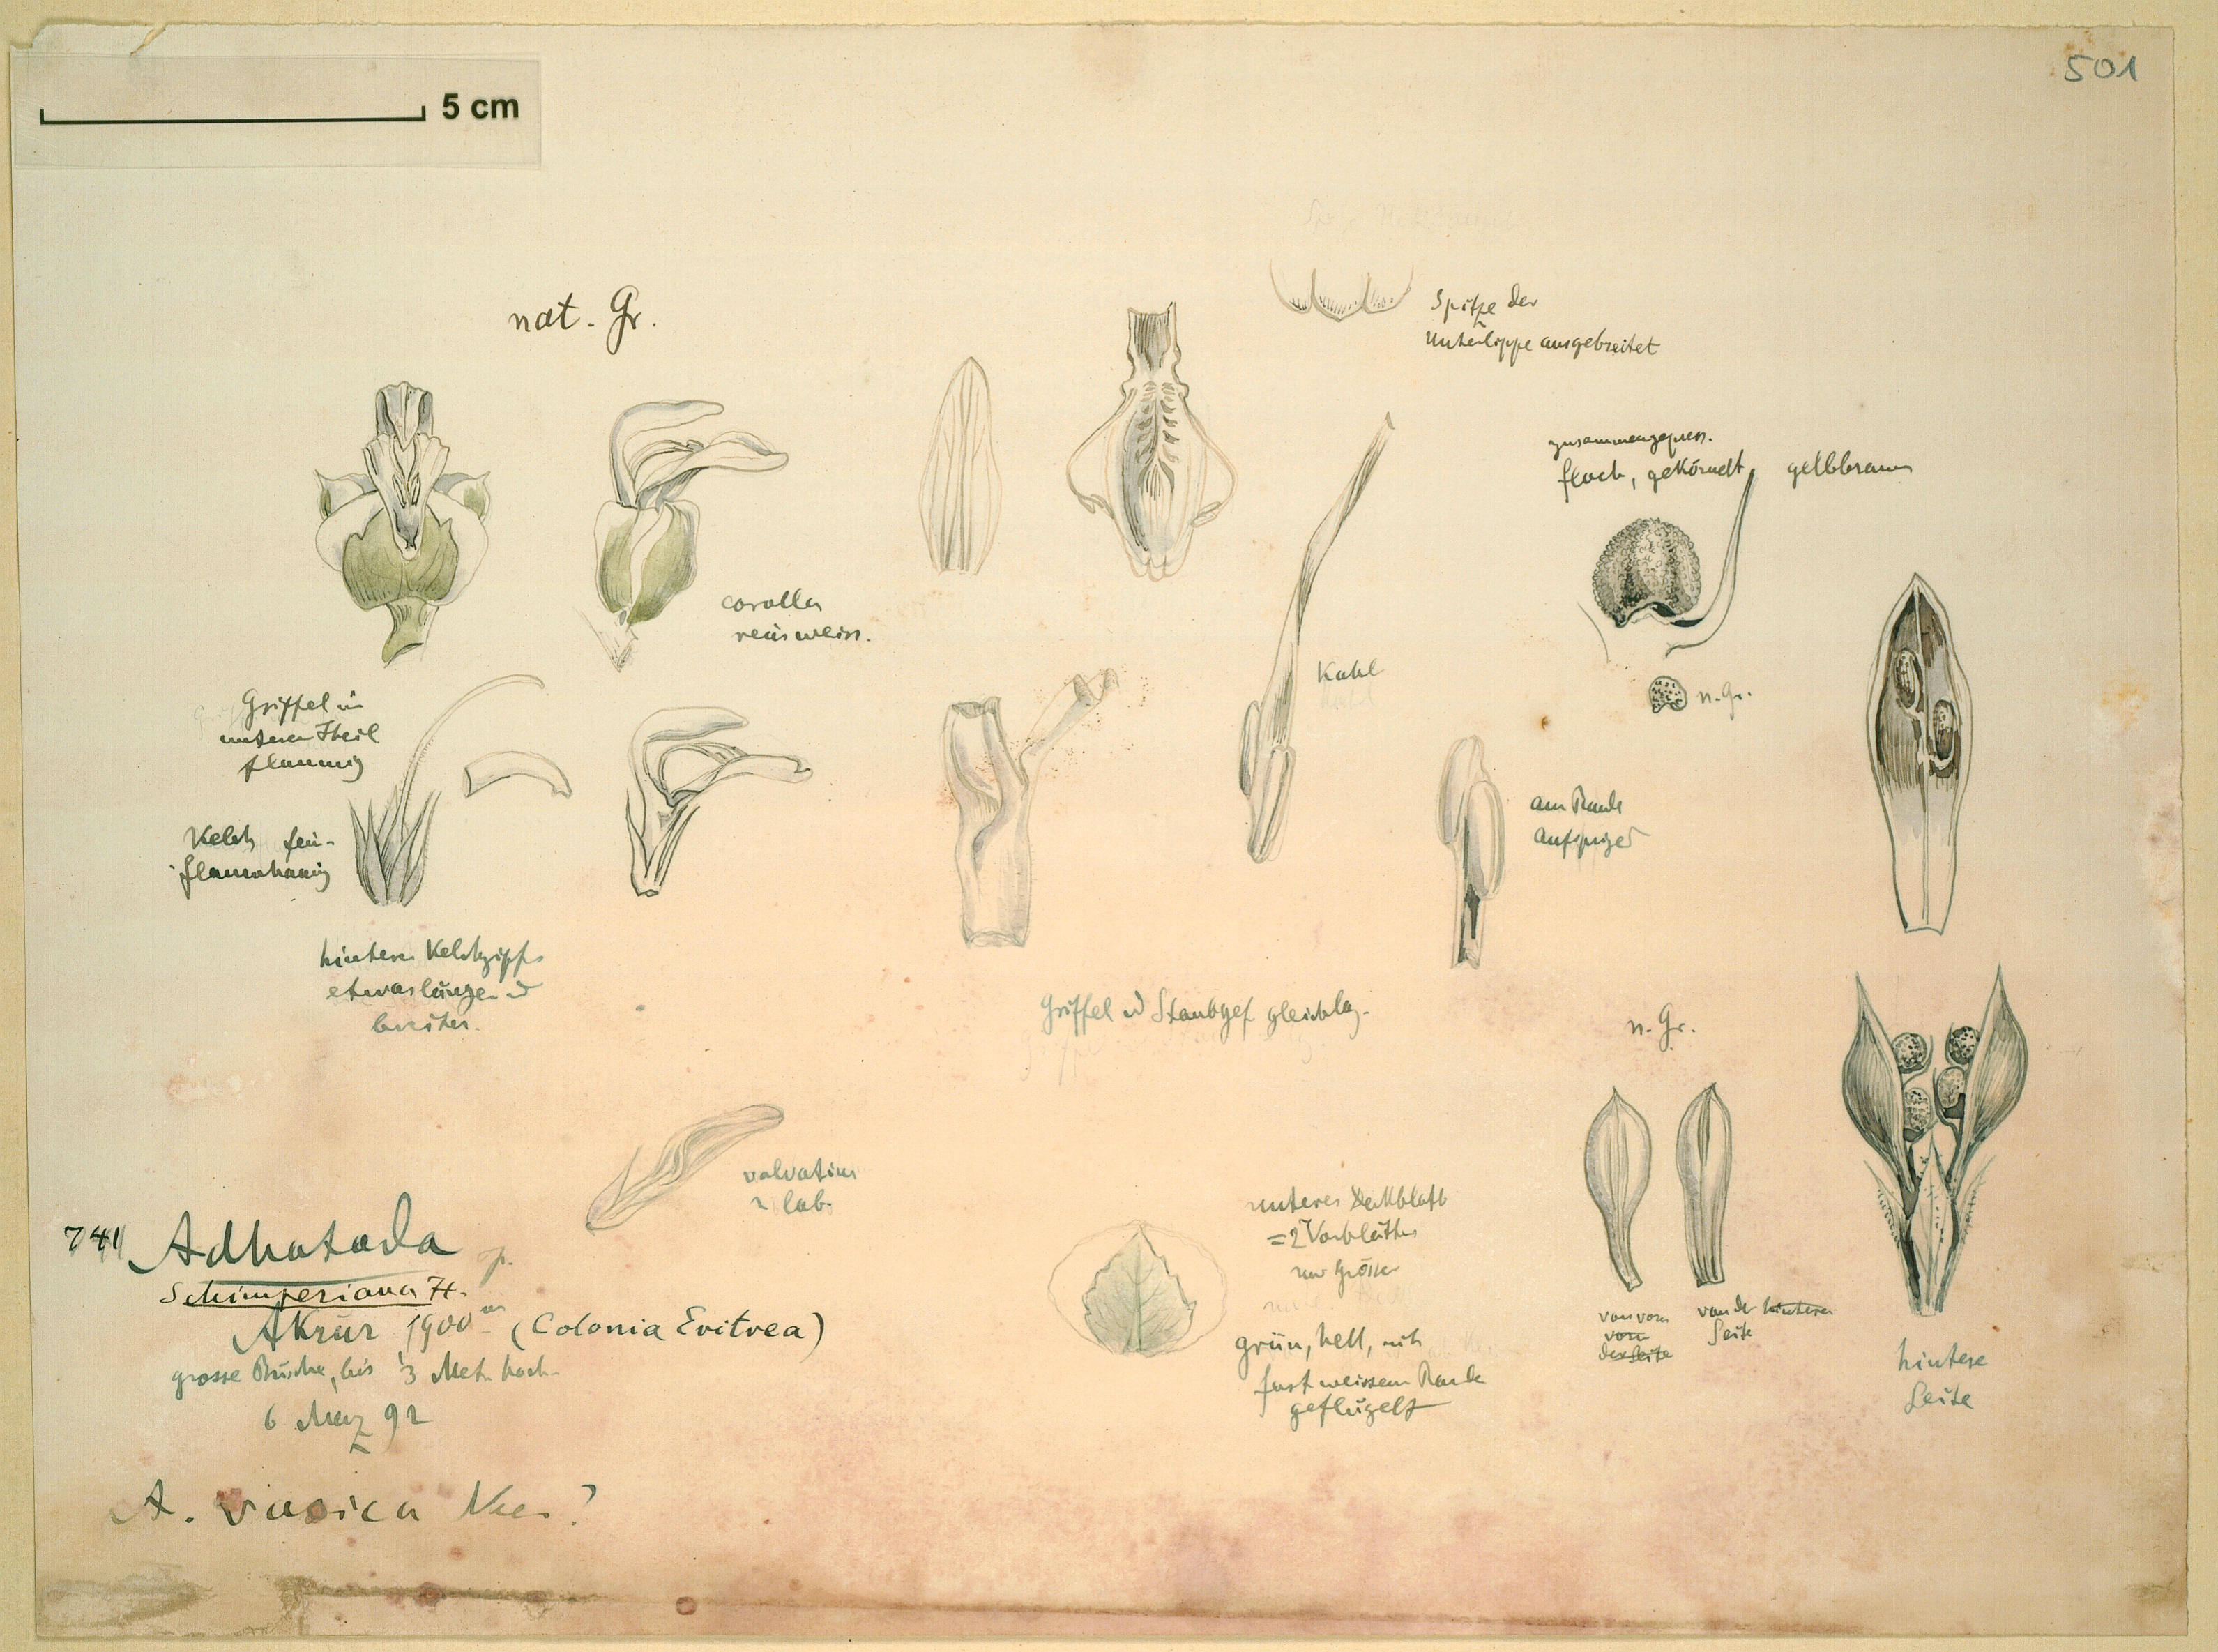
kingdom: Plantae
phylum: Tracheophyta
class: Magnoliopsida
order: Lamiales
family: Acanthaceae
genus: Justicia
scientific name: Justicia schimperiana
